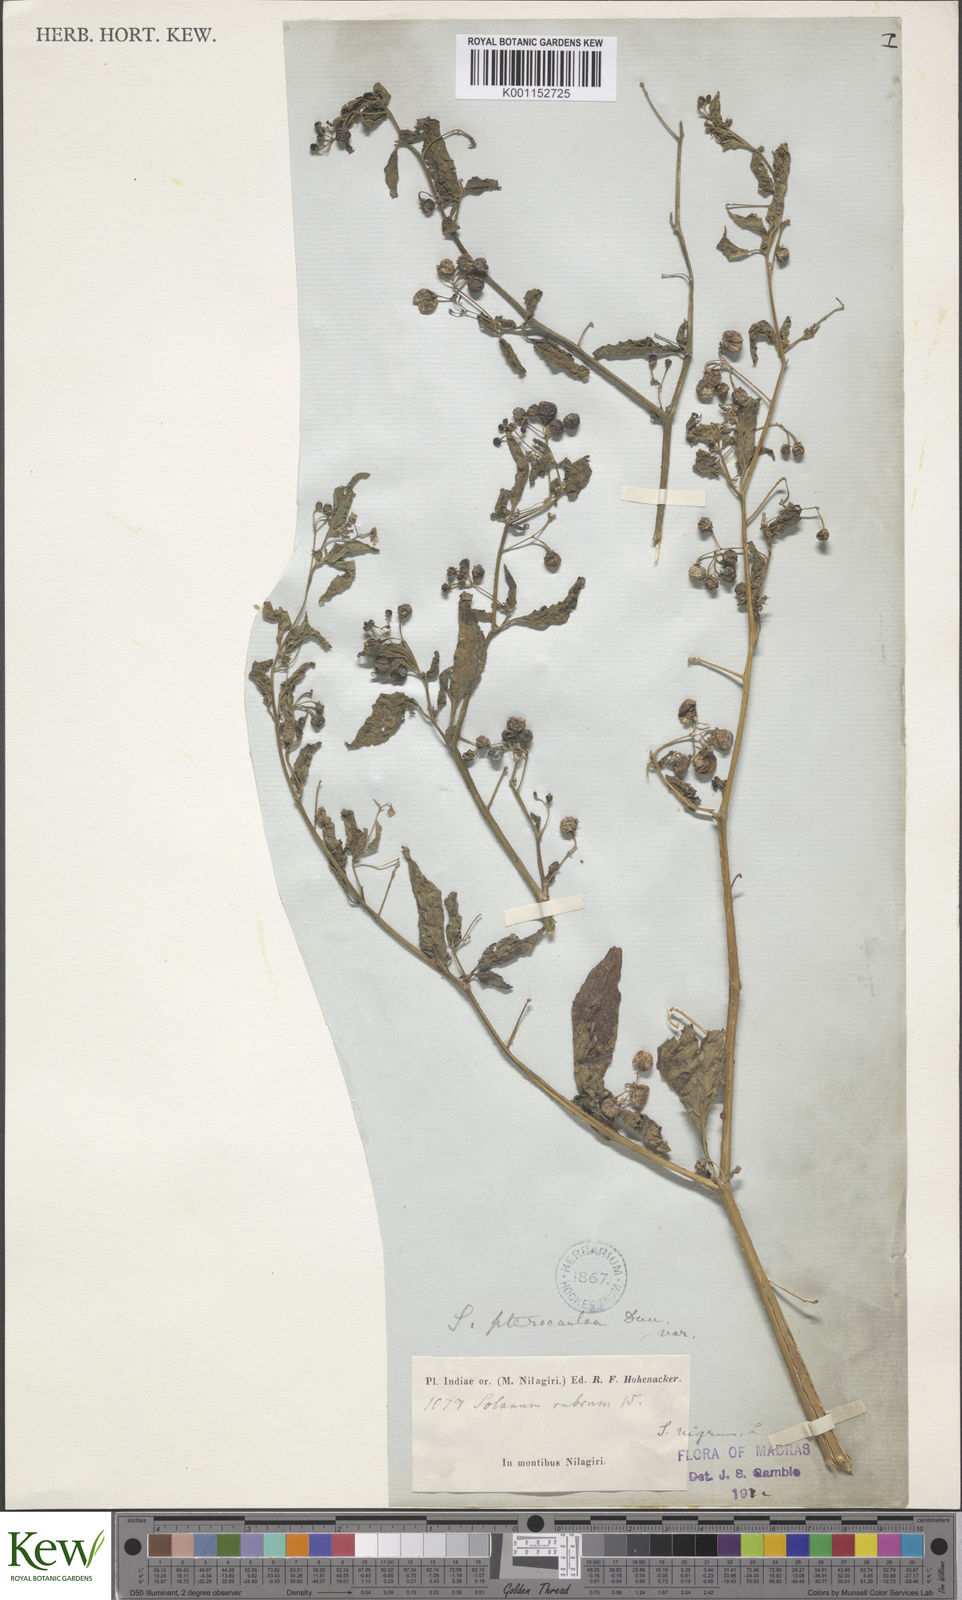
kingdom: Plantae
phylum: Tracheophyta
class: Magnoliopsida
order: Solanales
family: Solanaceae
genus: Solanum
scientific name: Solanum nigrum
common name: Black nightshade
